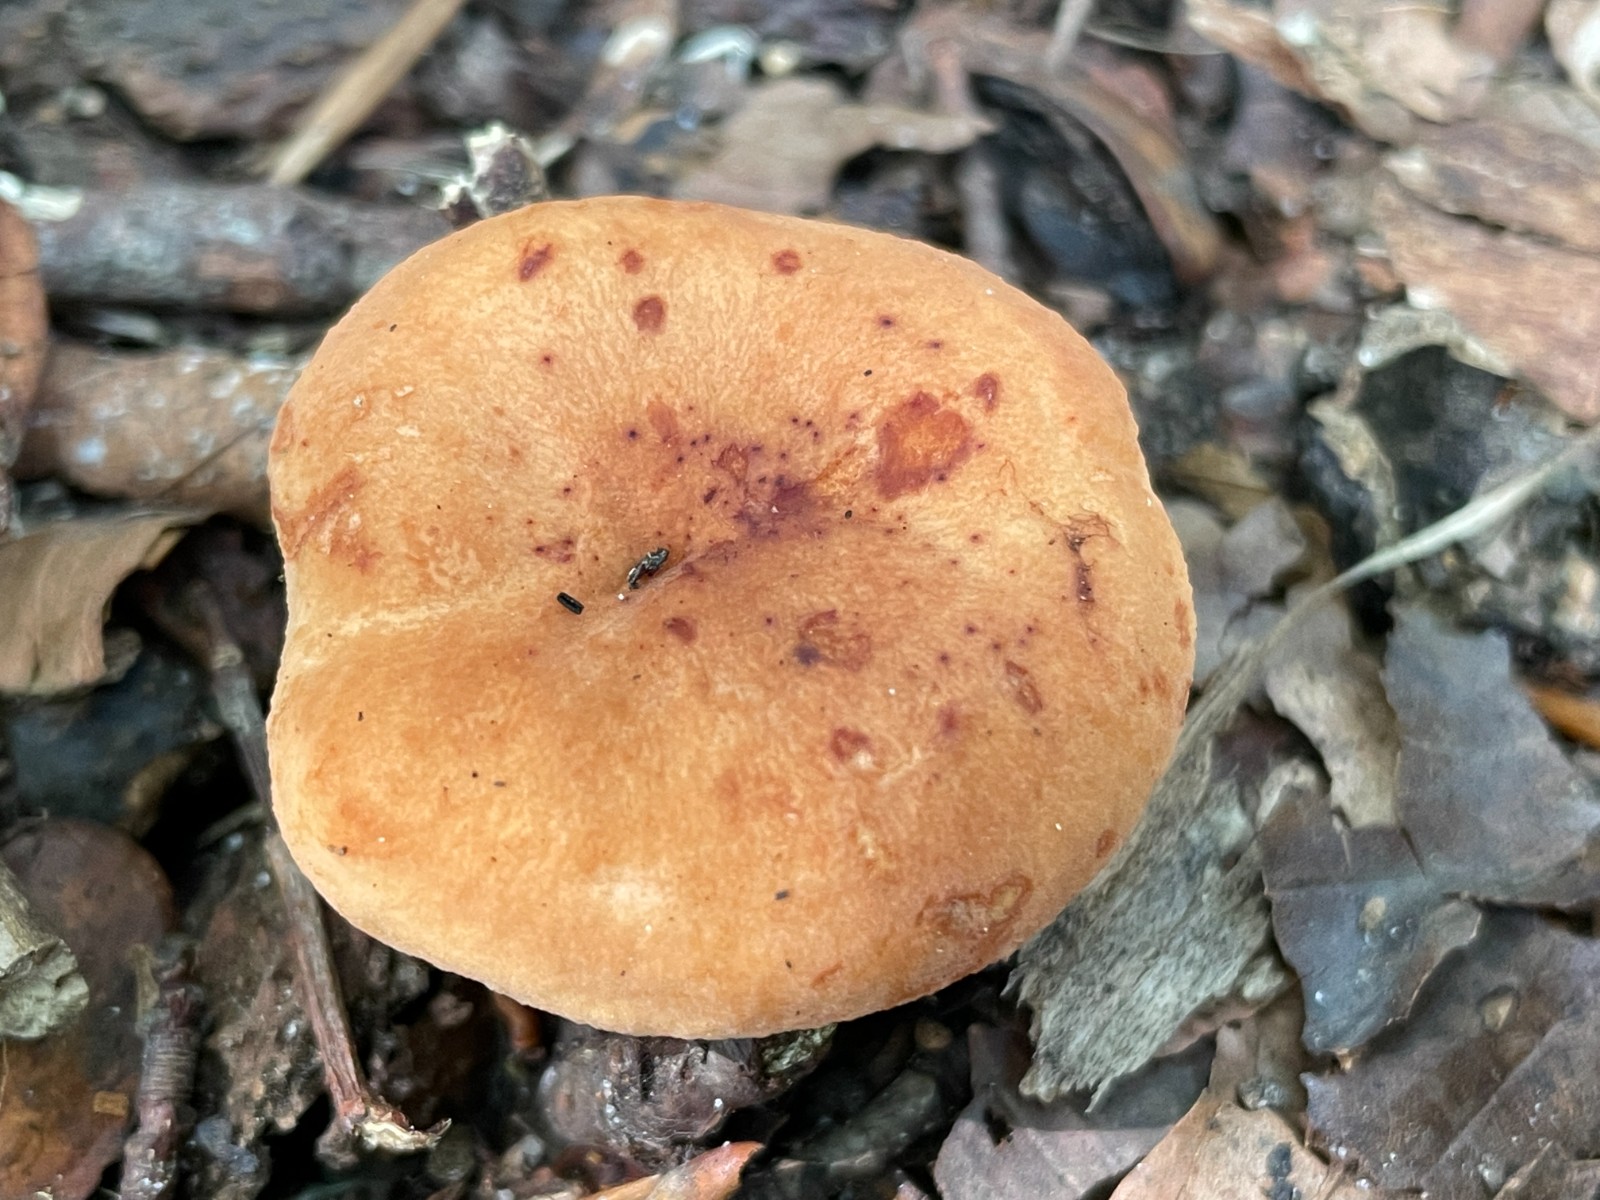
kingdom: Fungi
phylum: Basidiomycota
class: Agaricomycetes
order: Russulales
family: Russulaceae
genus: Lactarius
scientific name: Lactarius rubrocinctus
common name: halsbånd-mælkehat
